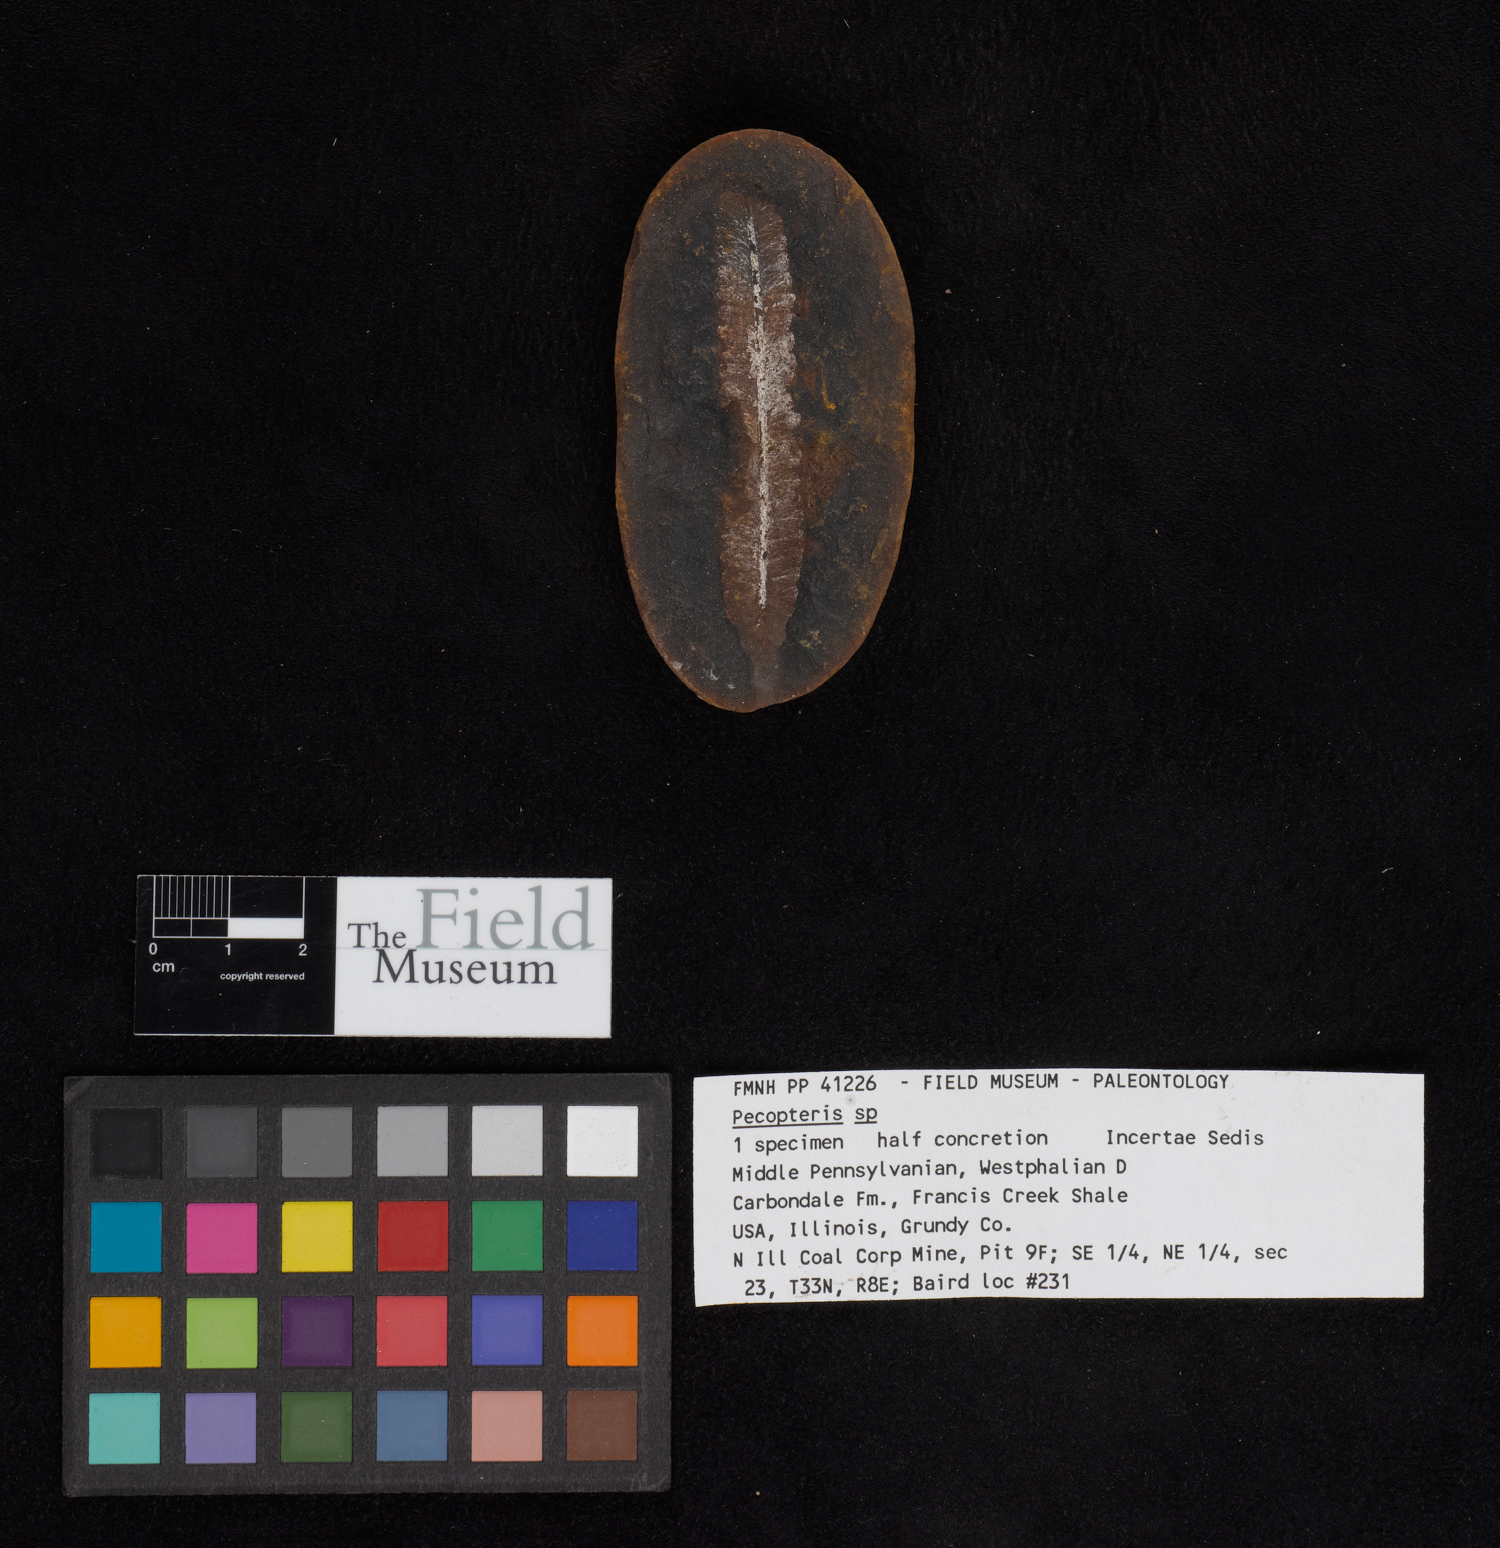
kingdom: Plantae
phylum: Tracheophyta
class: Polypodiopsida
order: Marattiales
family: Asterothecaceae
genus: Pecopteris
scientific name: Pecopteris
